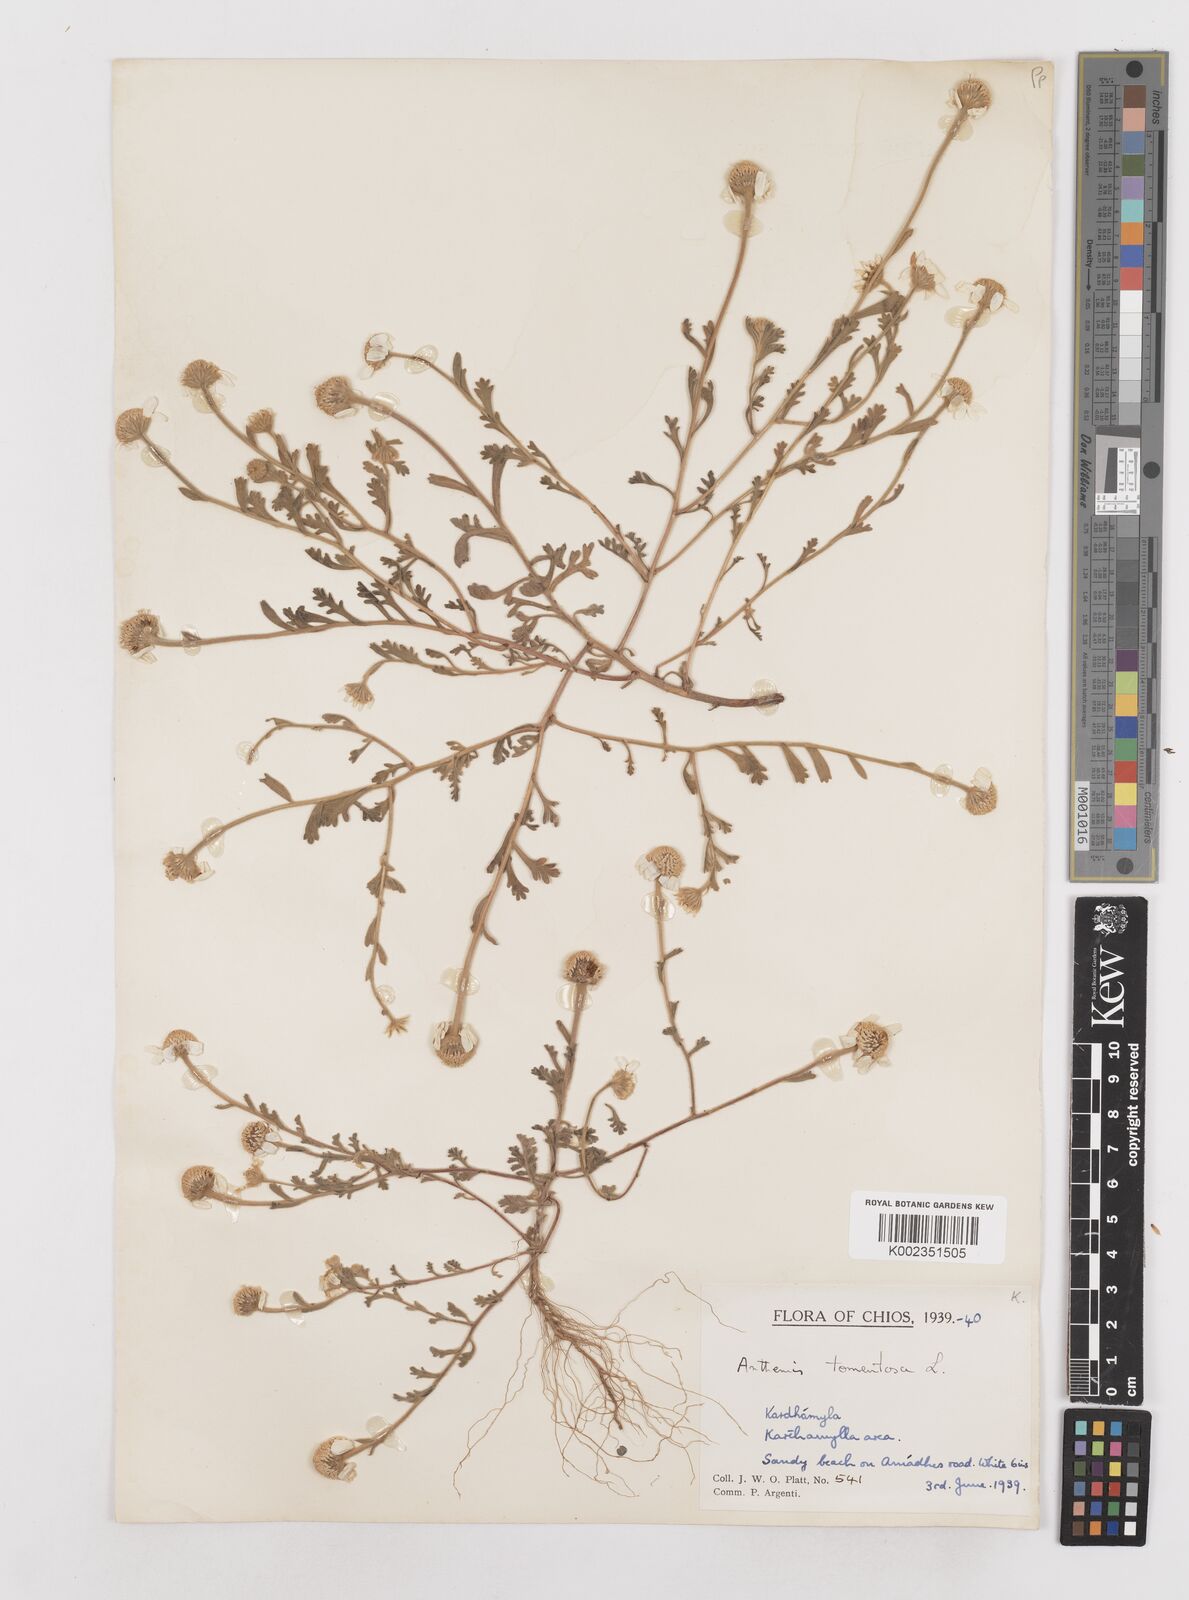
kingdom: Plantae
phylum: Tracheophyta
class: Magnoliopsida
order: Asterales
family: Asteraceae
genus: Anthemis
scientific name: Anthemis tomentosa
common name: Woolly chamomile
